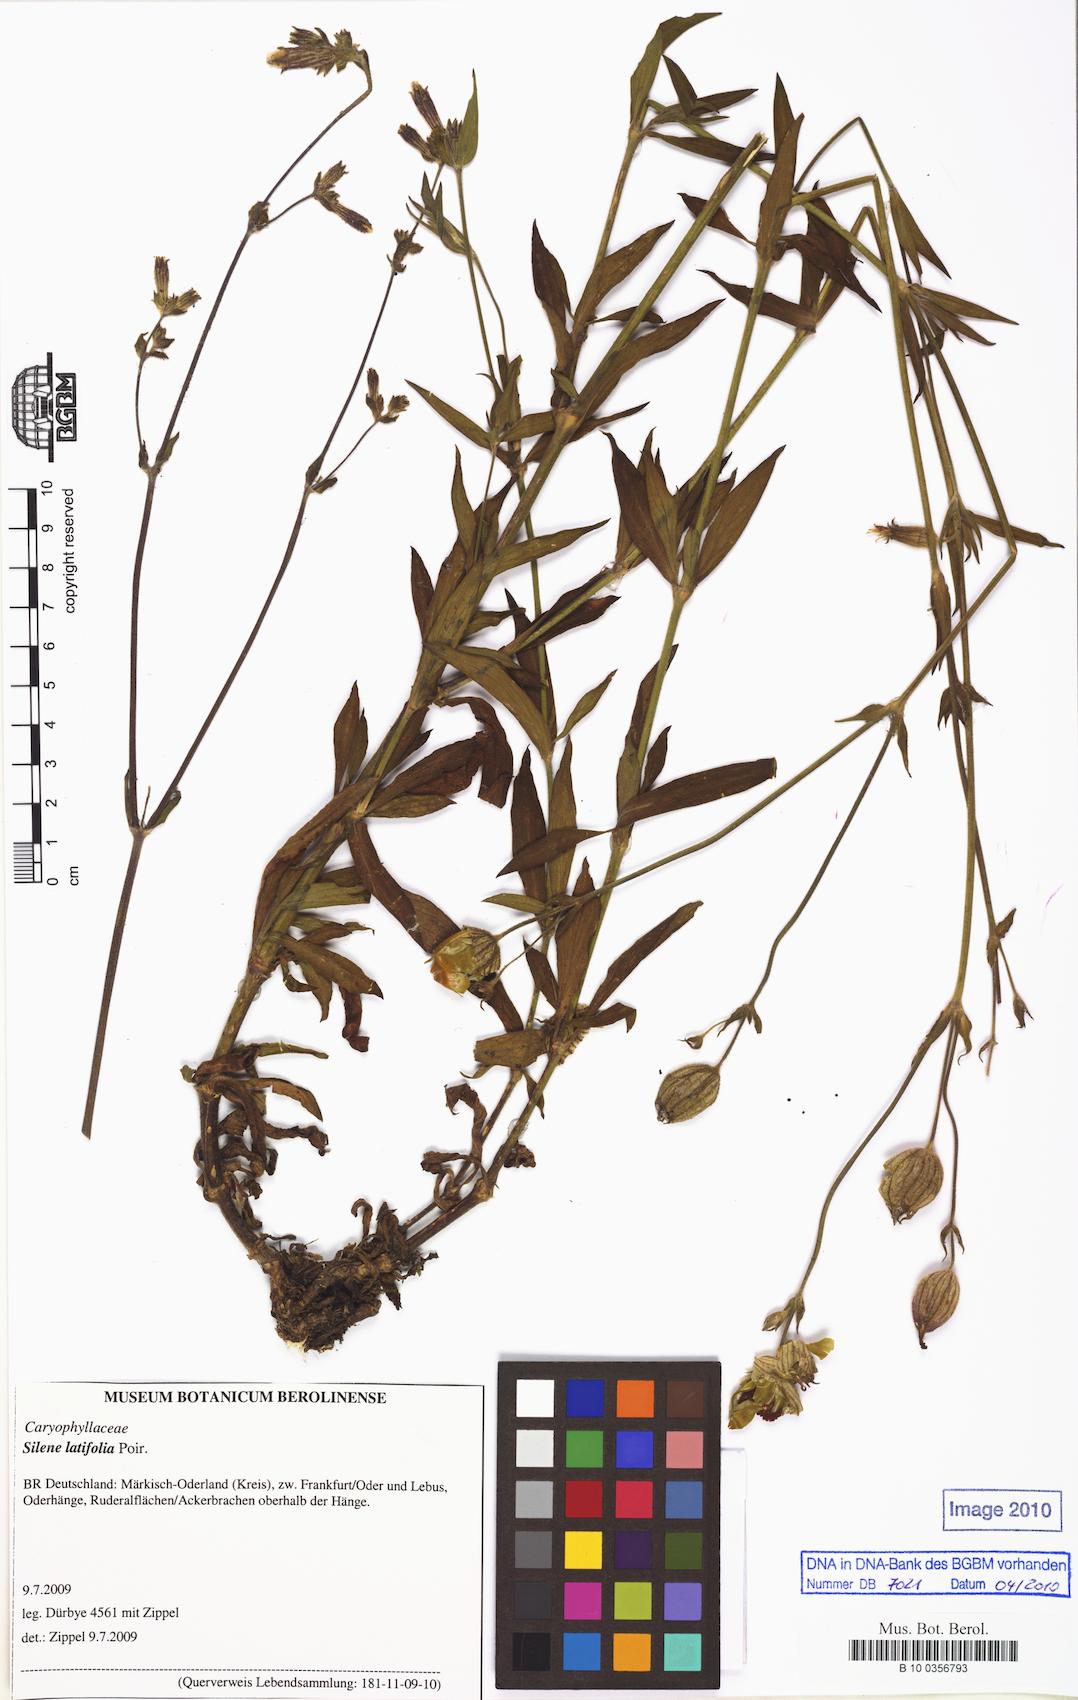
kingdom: Plantae
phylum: Tracheophyta
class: Magnoliopsida
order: Caryophyllales
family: Caryophyllaceae
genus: Silene
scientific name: Silene latifolia
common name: White campion
